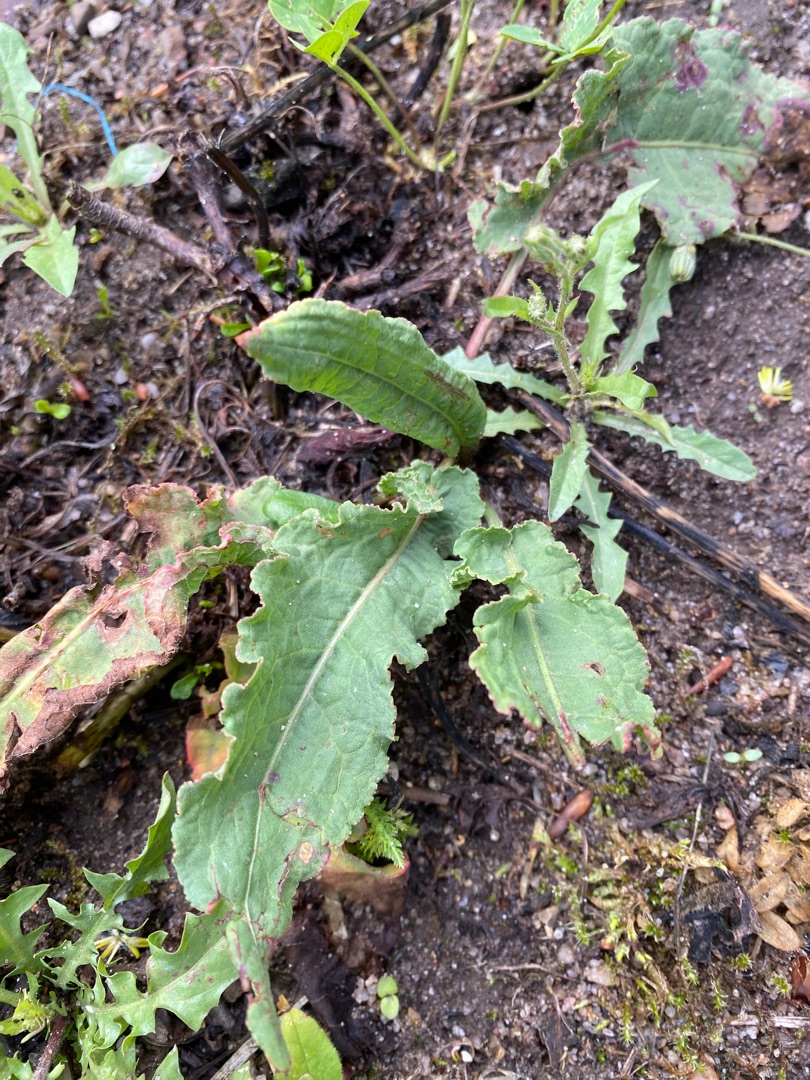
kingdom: Plantae
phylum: Tracheophyta
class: Magnoliopsida
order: Caryophyllales
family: Polygonaceae
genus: Rumex
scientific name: Rumex
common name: Skræppeslægten
